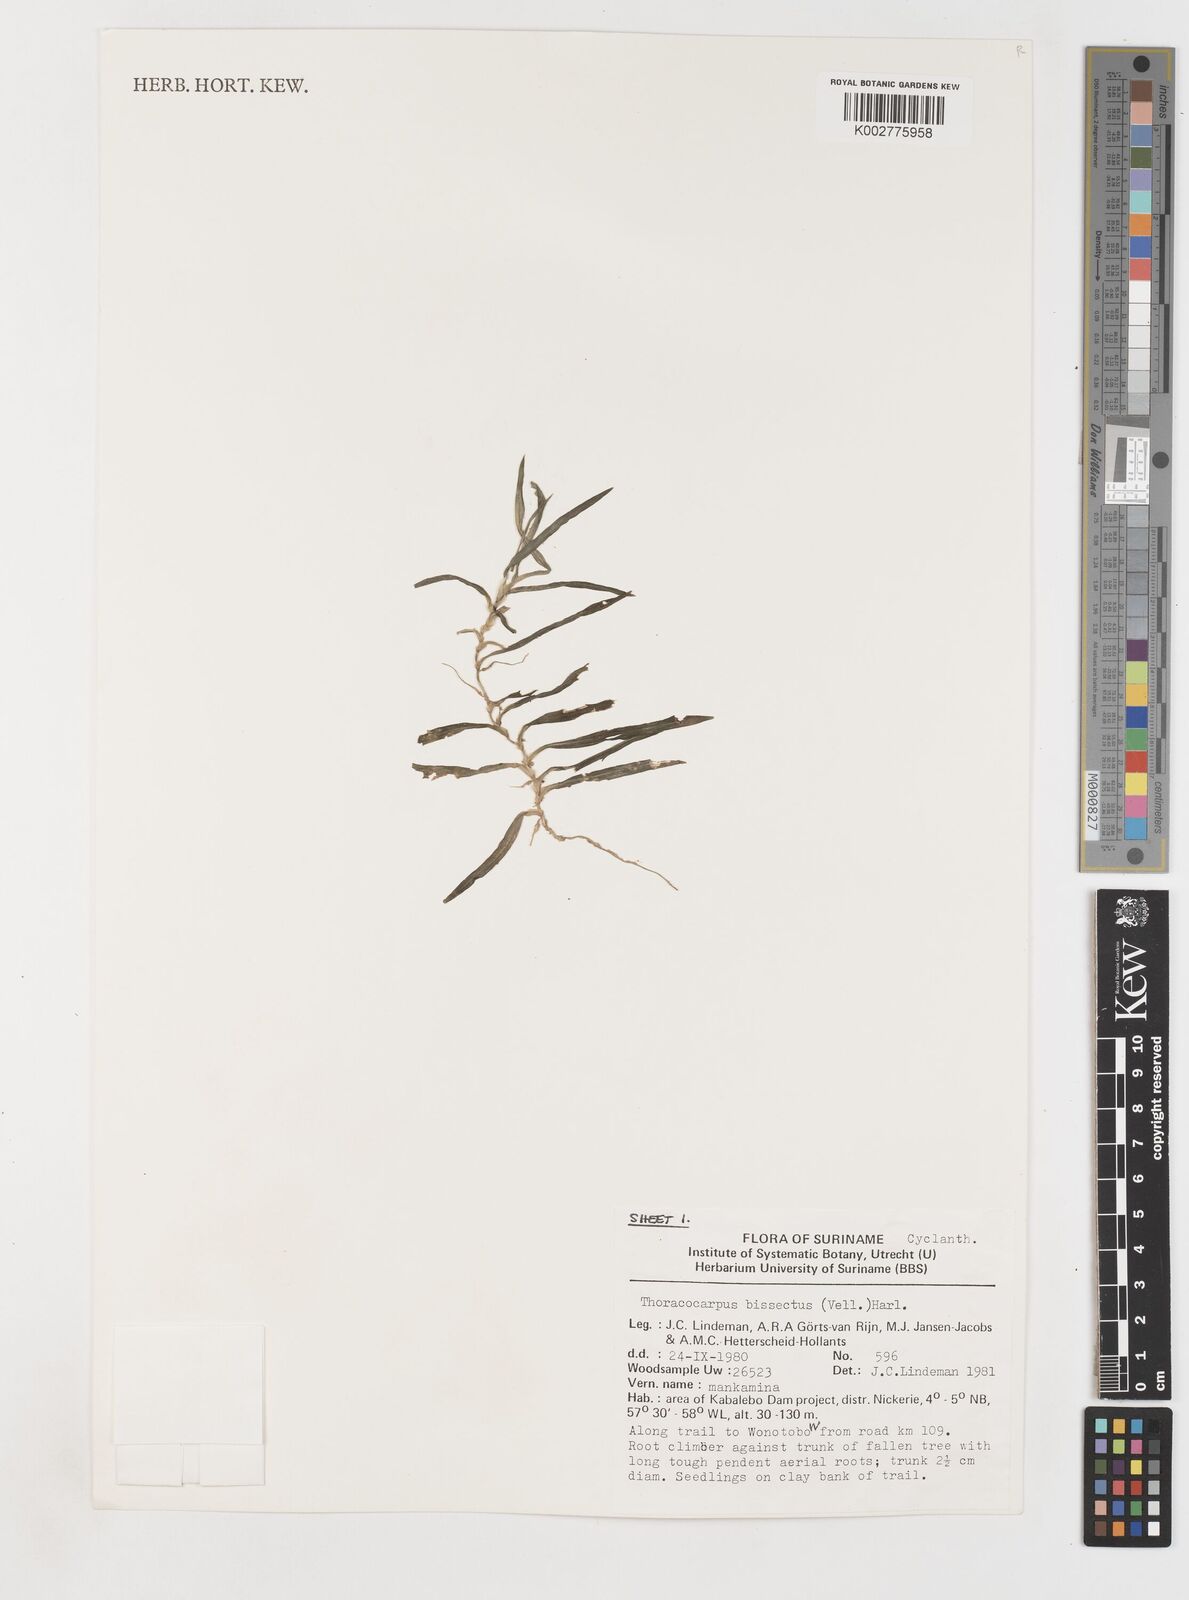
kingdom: Plantae
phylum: Tracheophyta
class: Liliopsida
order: Pandanales
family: Cyclanthaceae
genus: Thoracocarpus
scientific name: Thoracocarpus bissectus
